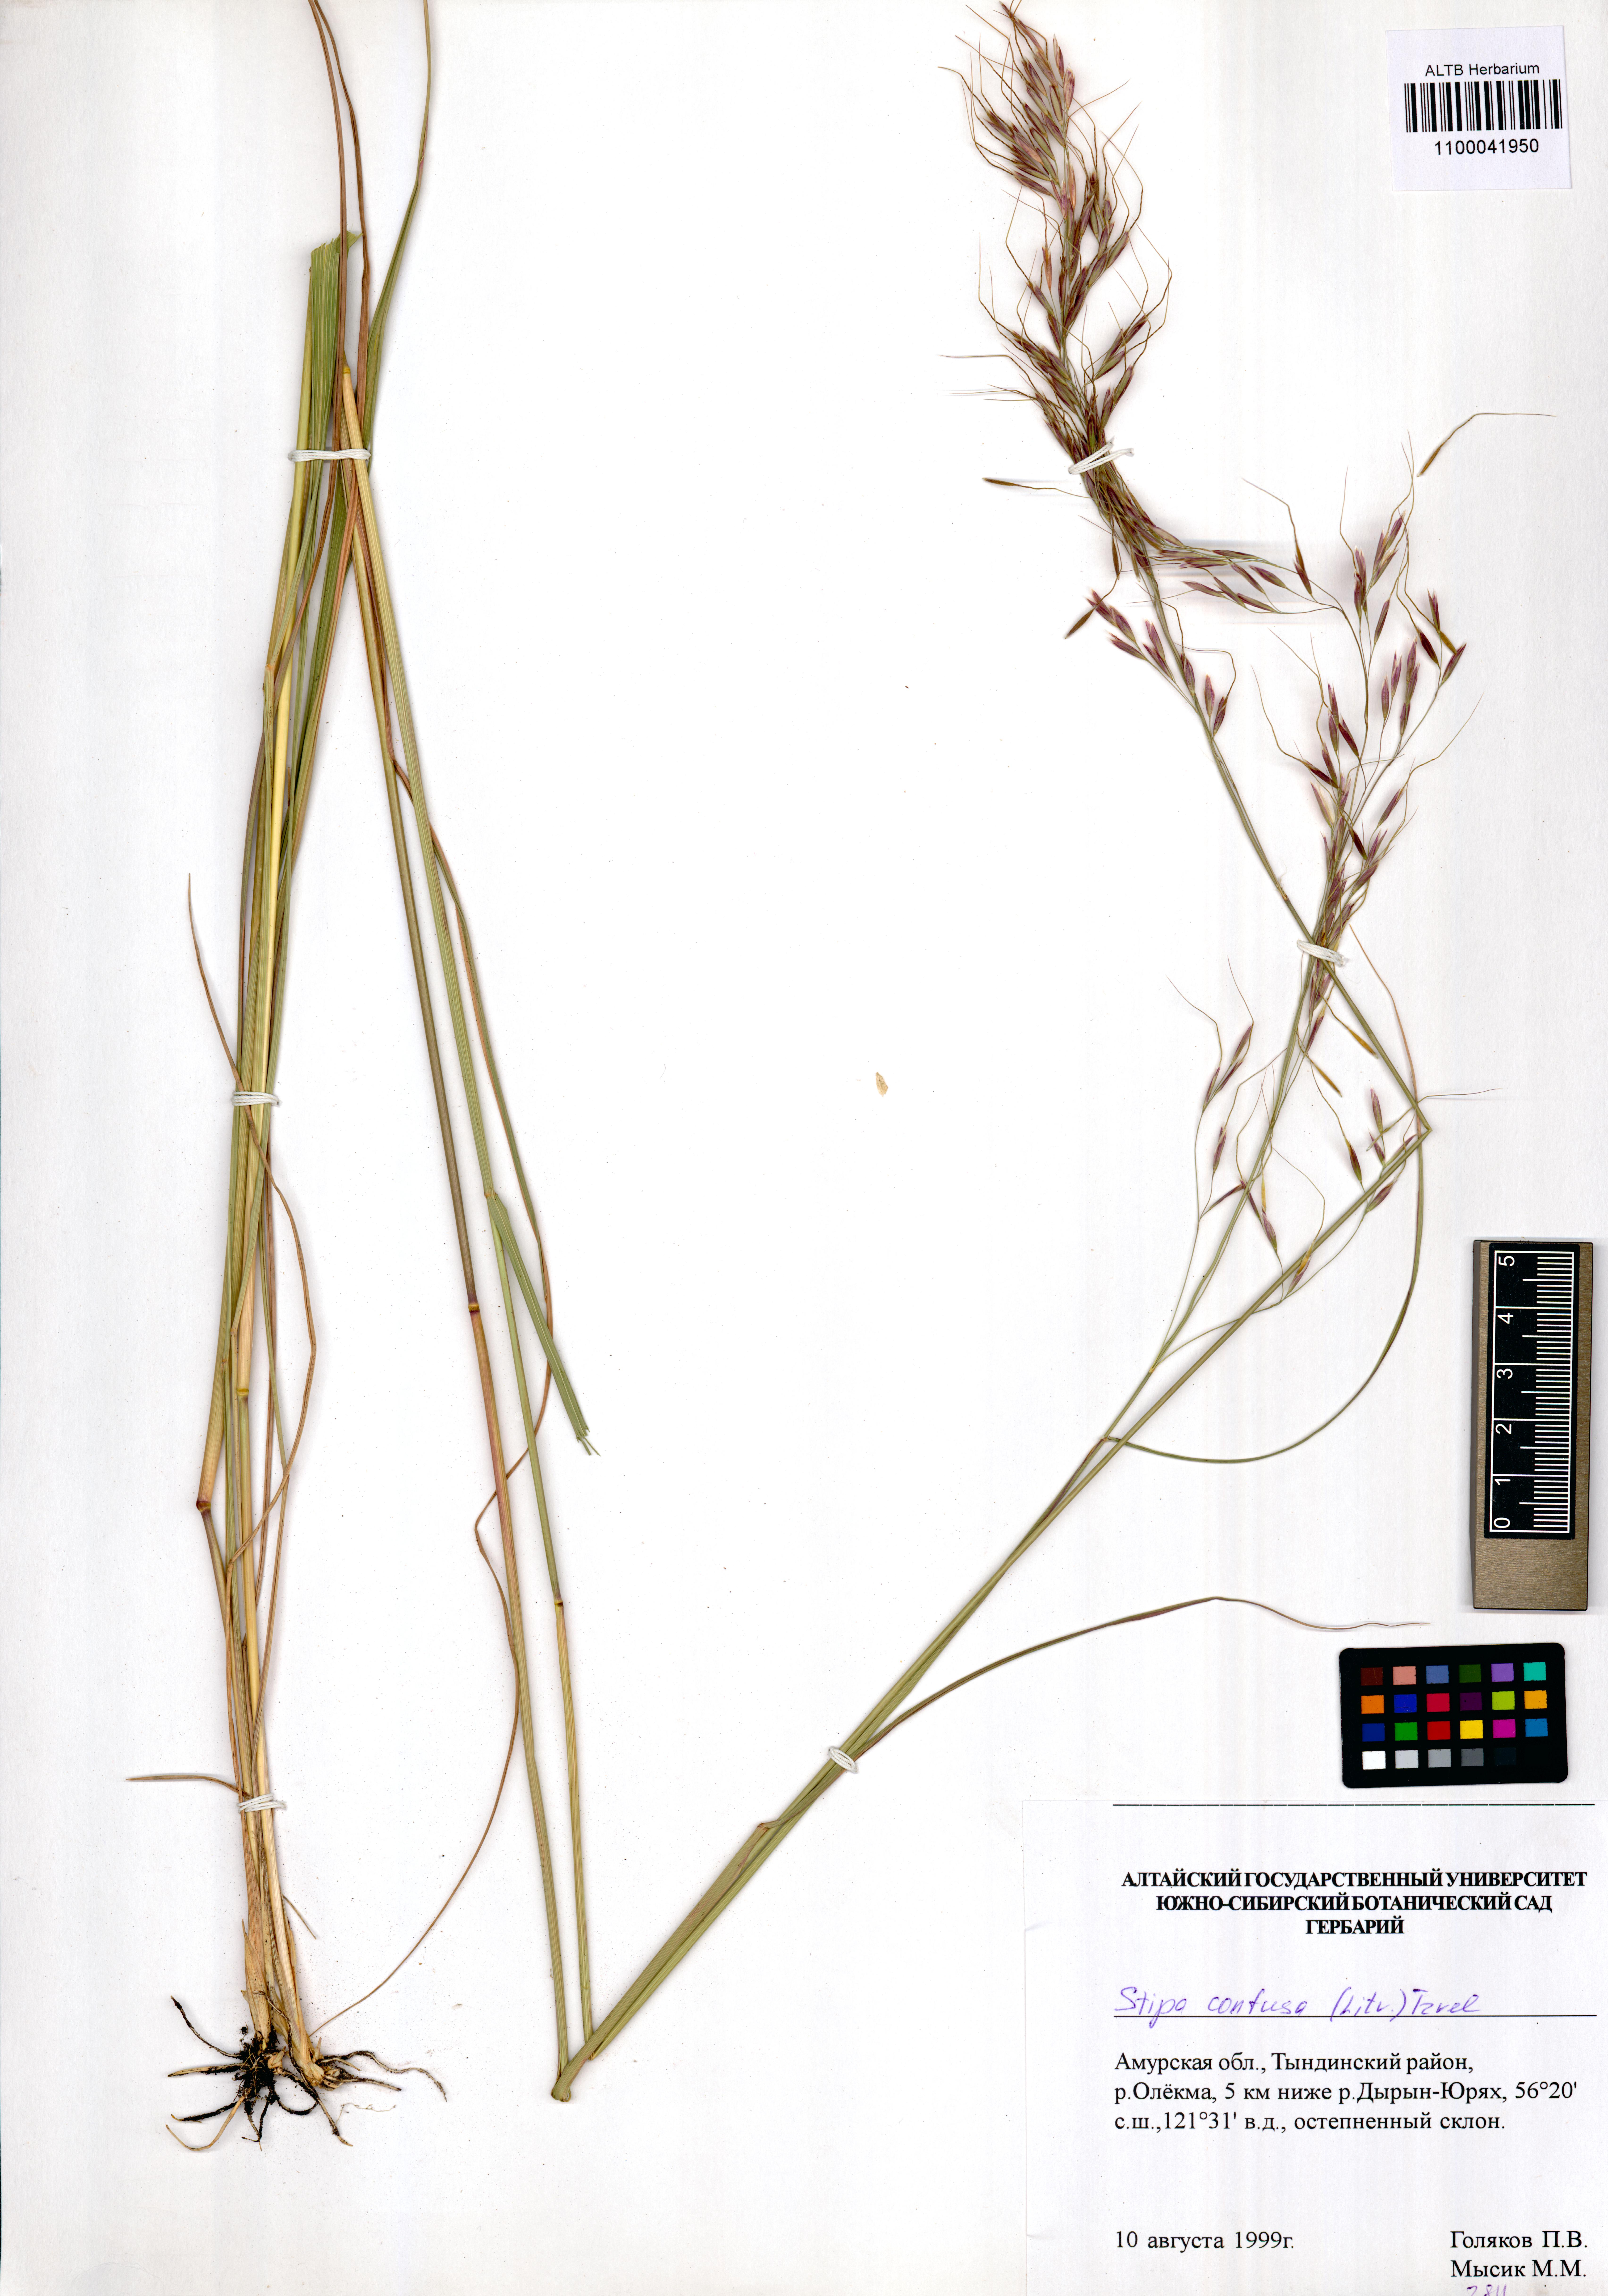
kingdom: Plantae
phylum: Tracheophyta
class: Liliopsida
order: Poales
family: Poaceae
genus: Achnatherum
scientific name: Achnatherum confusum
